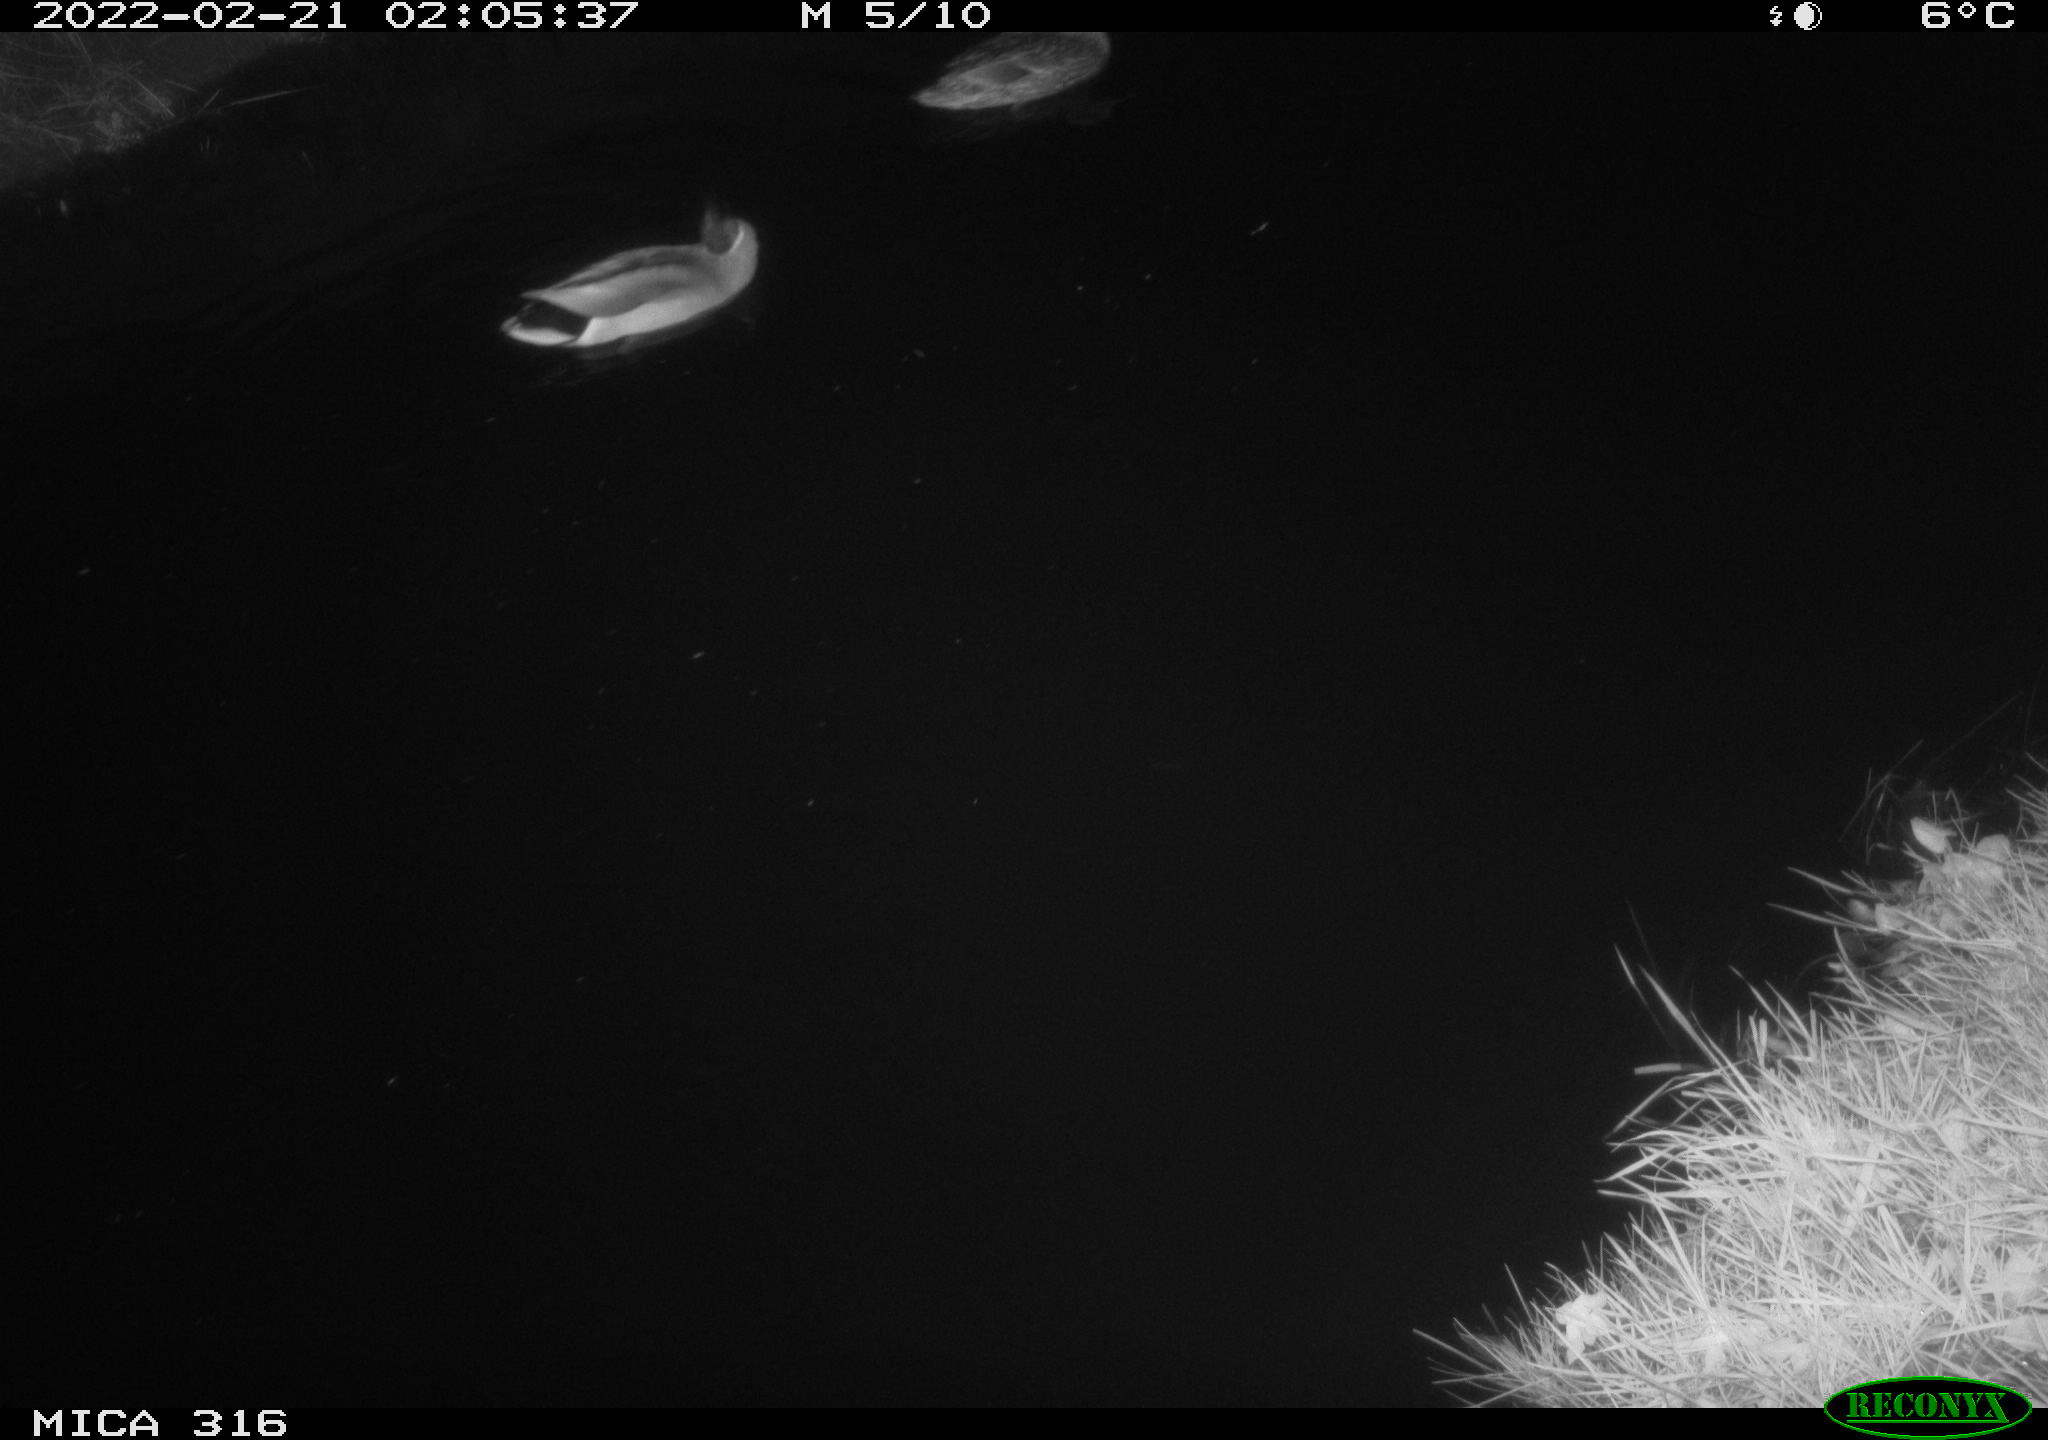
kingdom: Animalia
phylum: Chordata
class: Aves
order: Anseriformes
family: Anatidae
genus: Anas
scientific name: Anas platyrhynchos
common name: Mallard
